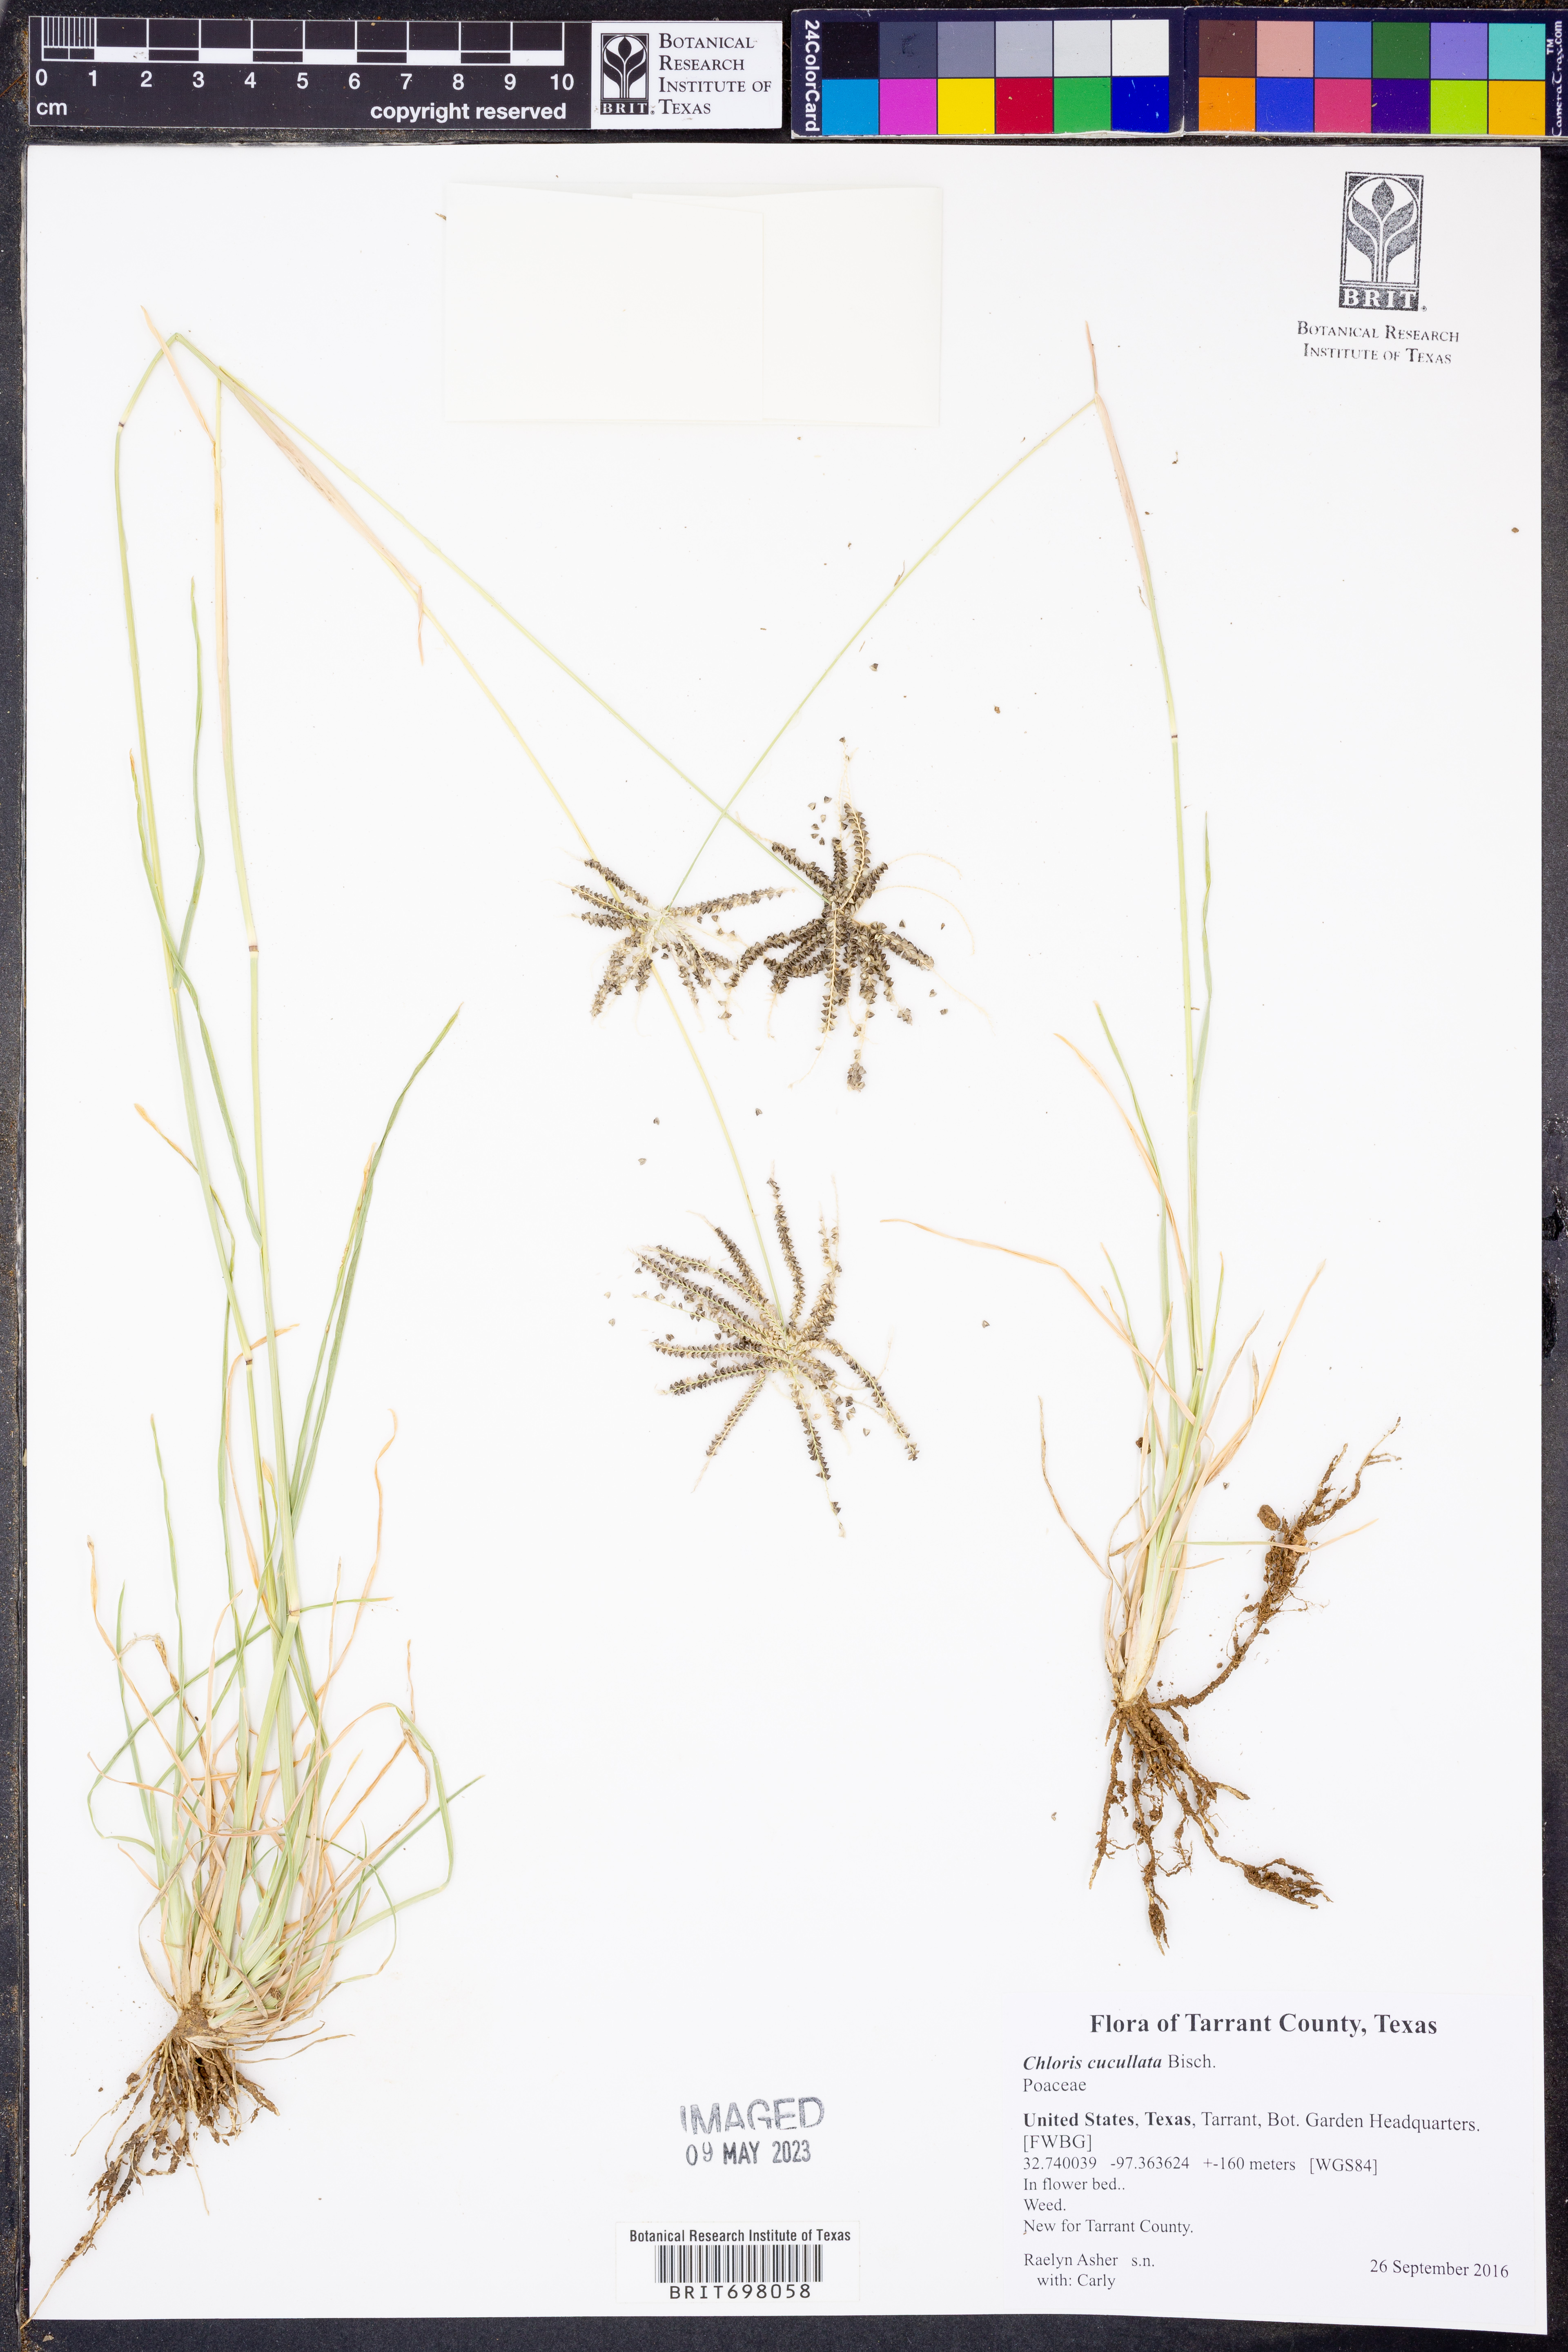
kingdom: Plantae
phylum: Tracheophyta
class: Liliopsida
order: Poales
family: Poaceae
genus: Chloris
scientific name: Chloris cucullata
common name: Hooded windmill grass
